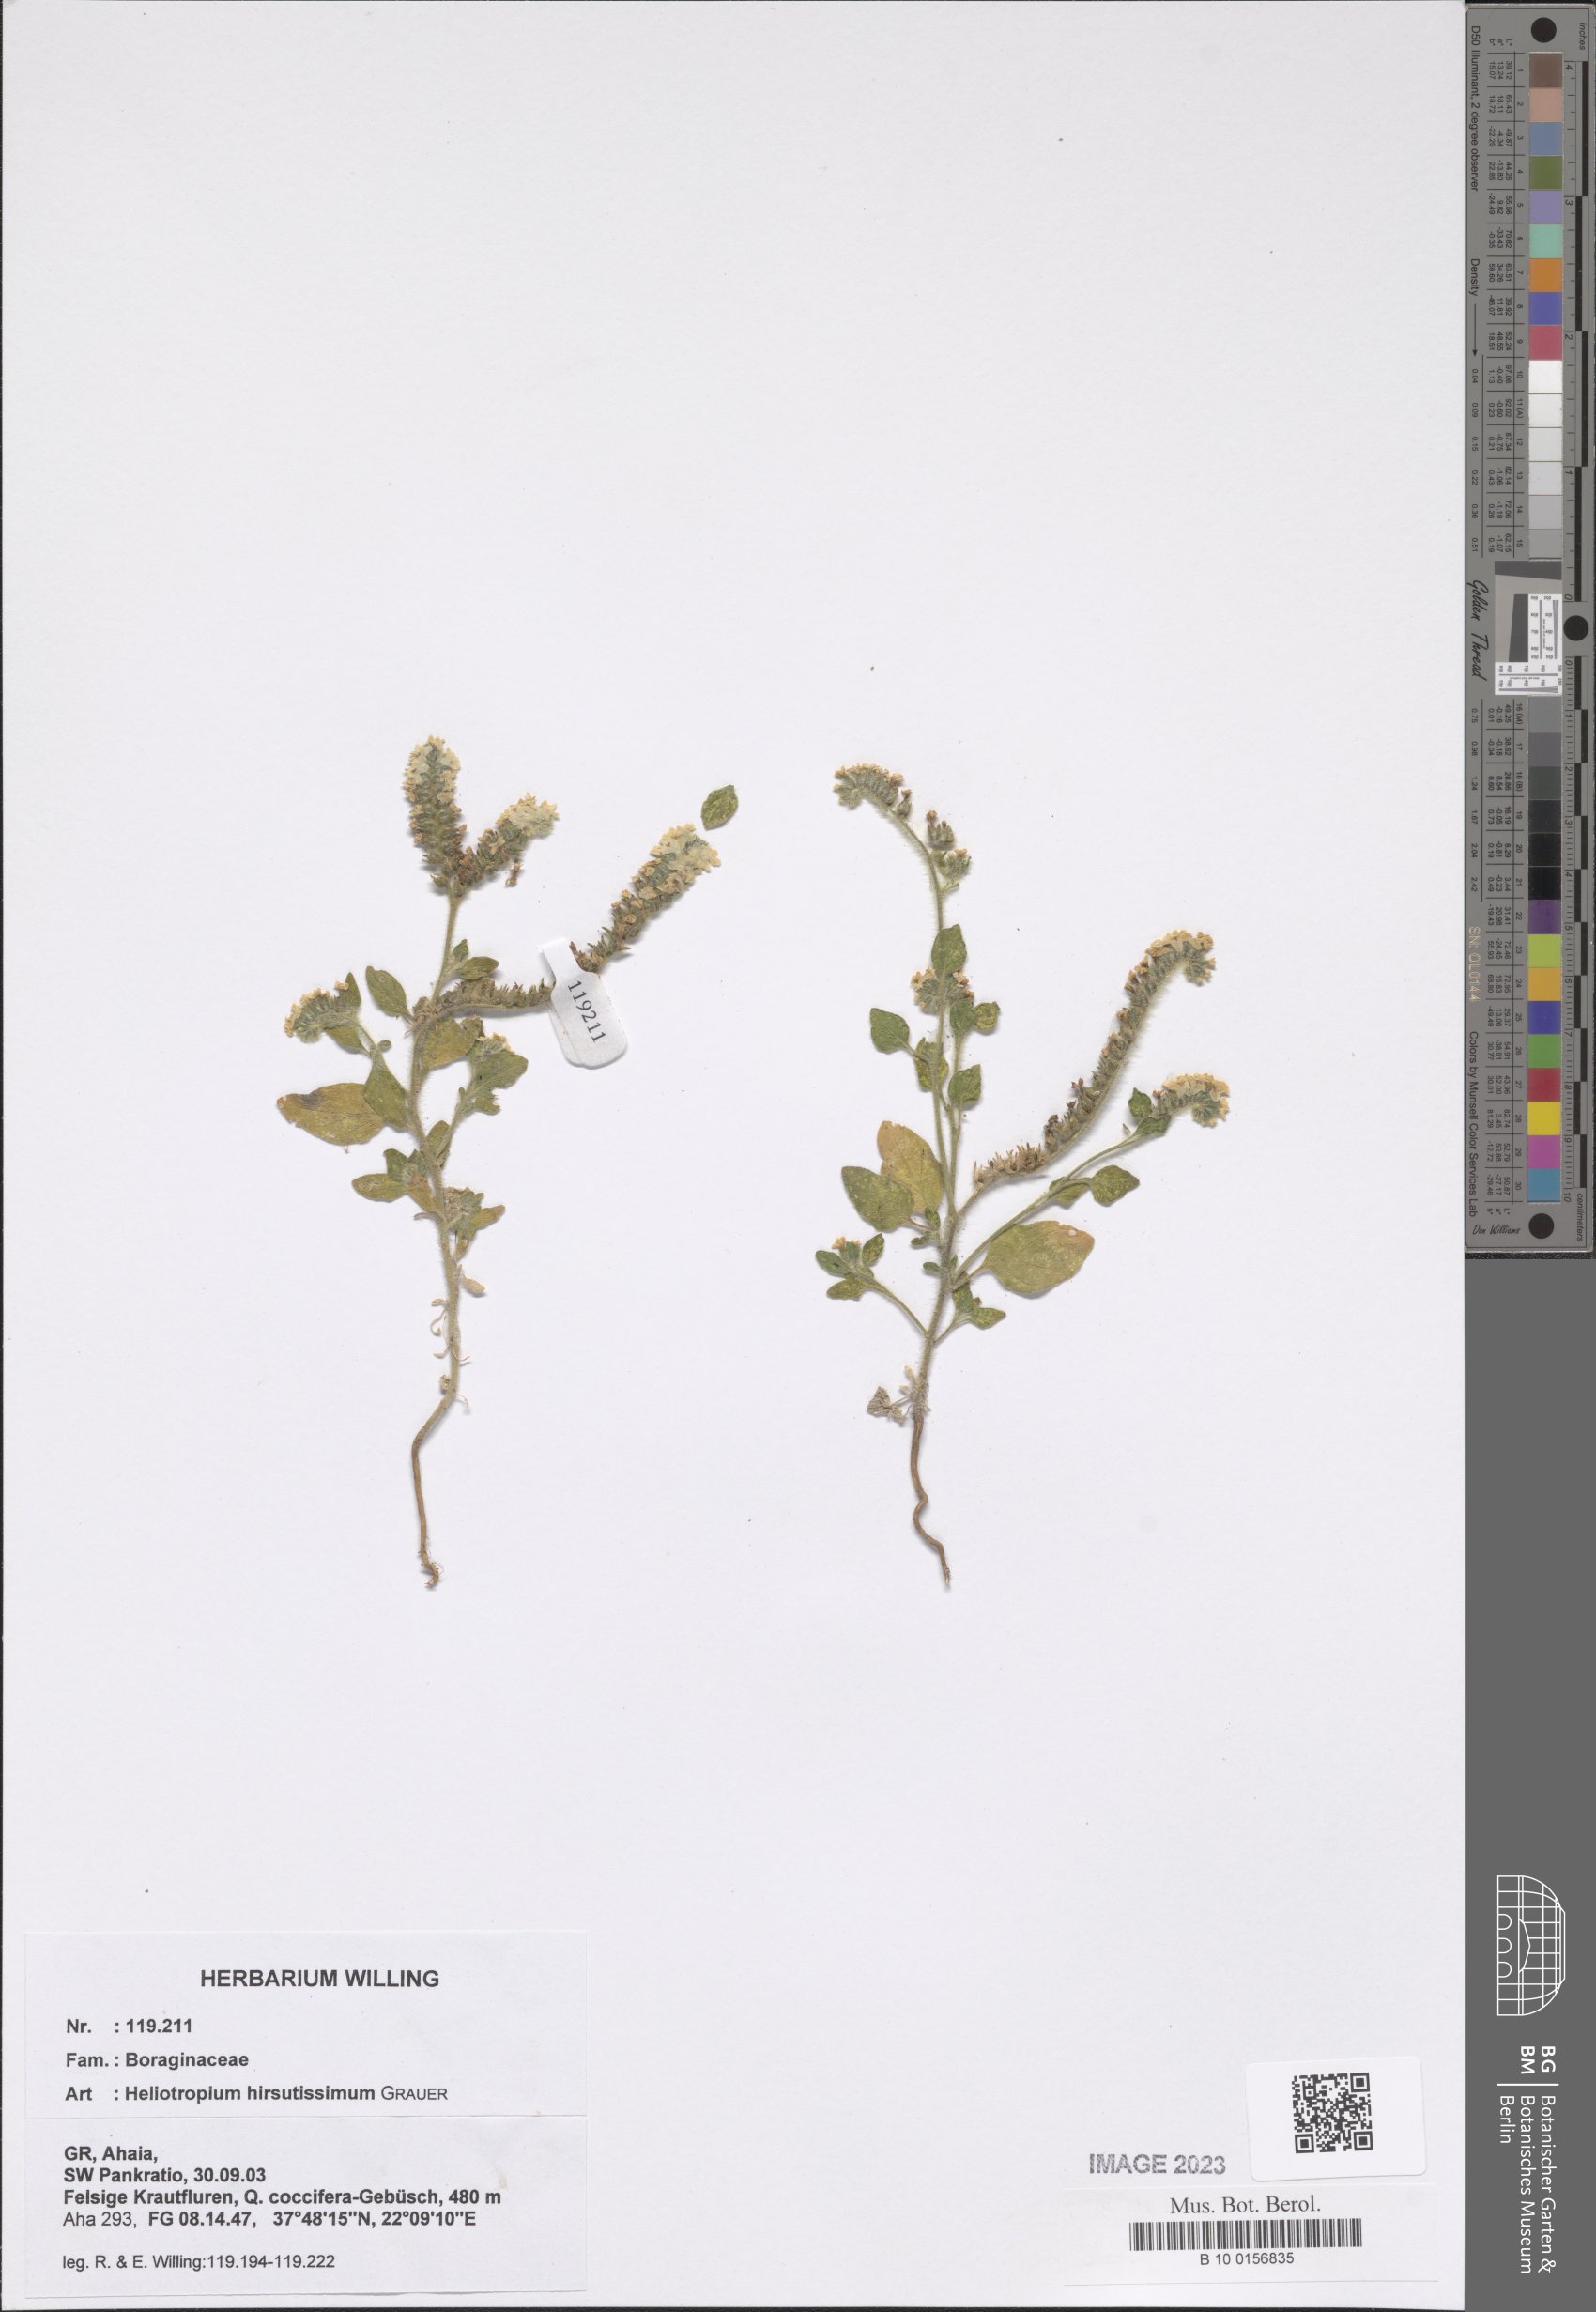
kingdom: Plantae
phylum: Tracheophyta
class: Magnoliopsida
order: Boraginales
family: Heliotropiaceae
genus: Heliotropium
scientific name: Heliotropium hirsutissimum
